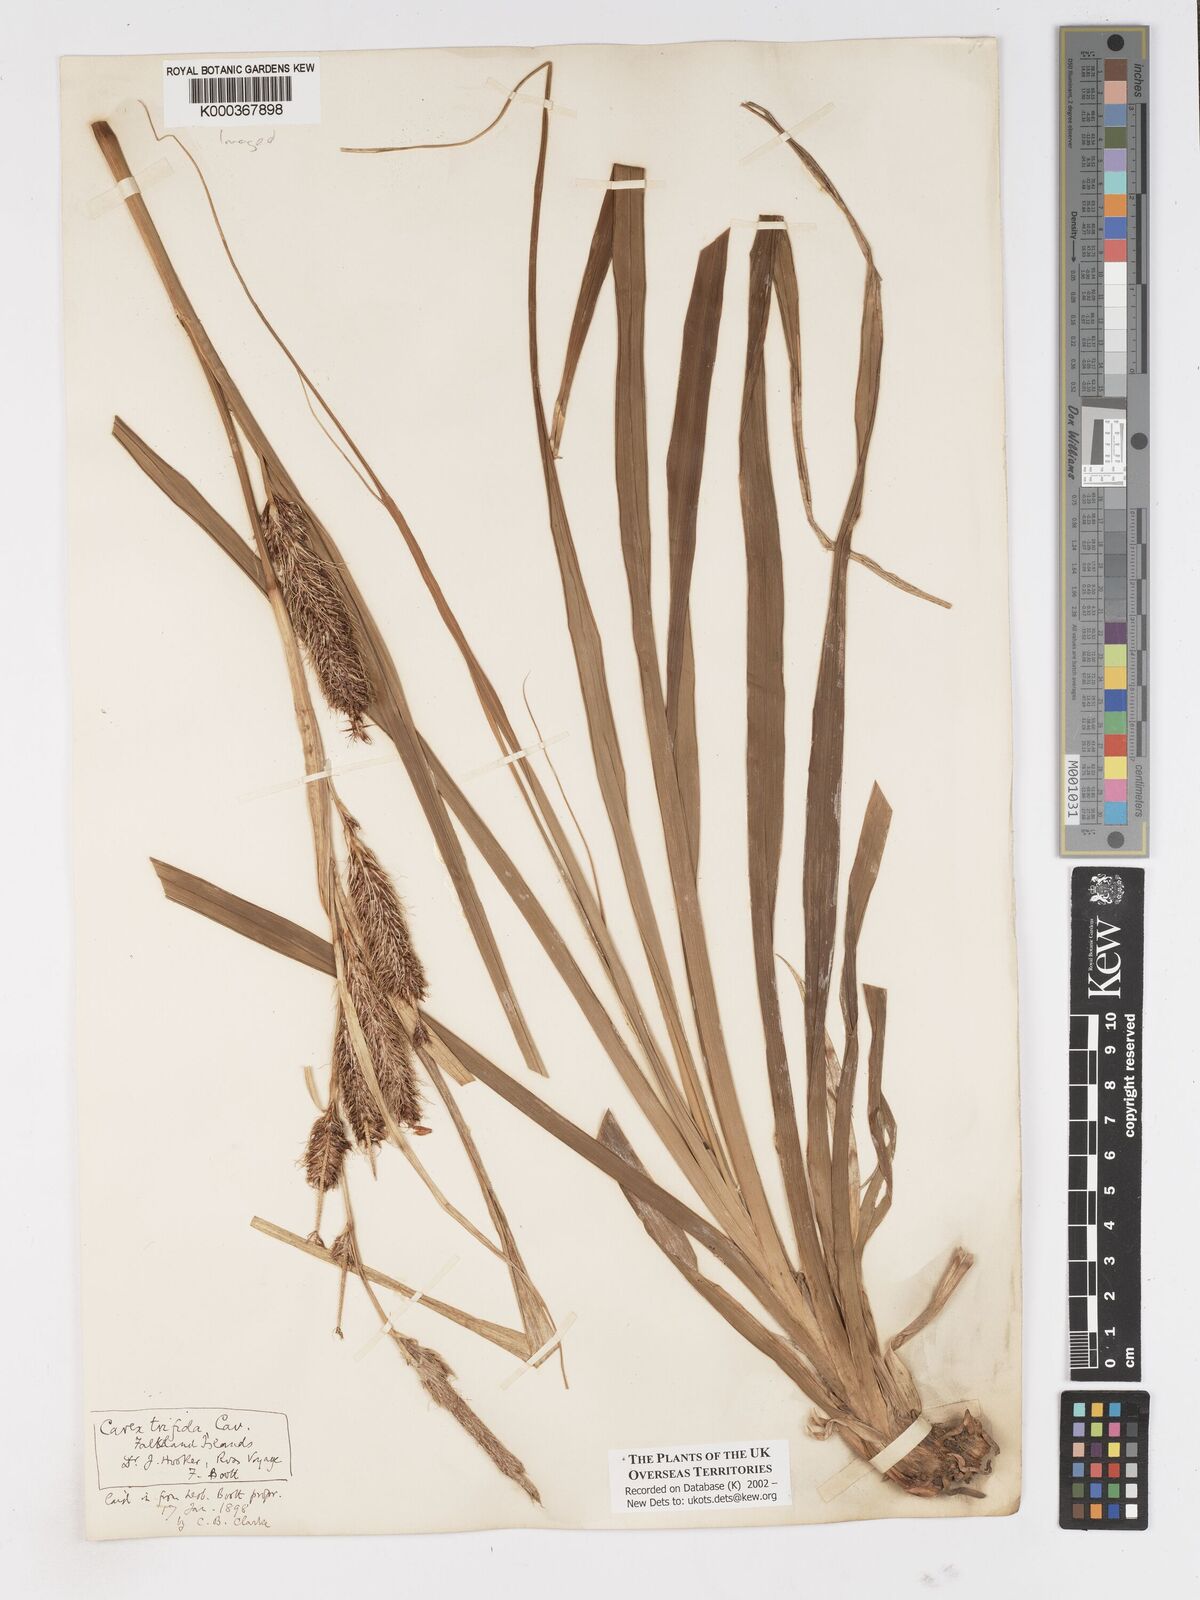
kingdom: Plantae
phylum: Tracheophyta
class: Liliopsida
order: Poales
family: Cyperaceae
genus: Carex
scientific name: Carex trifida
